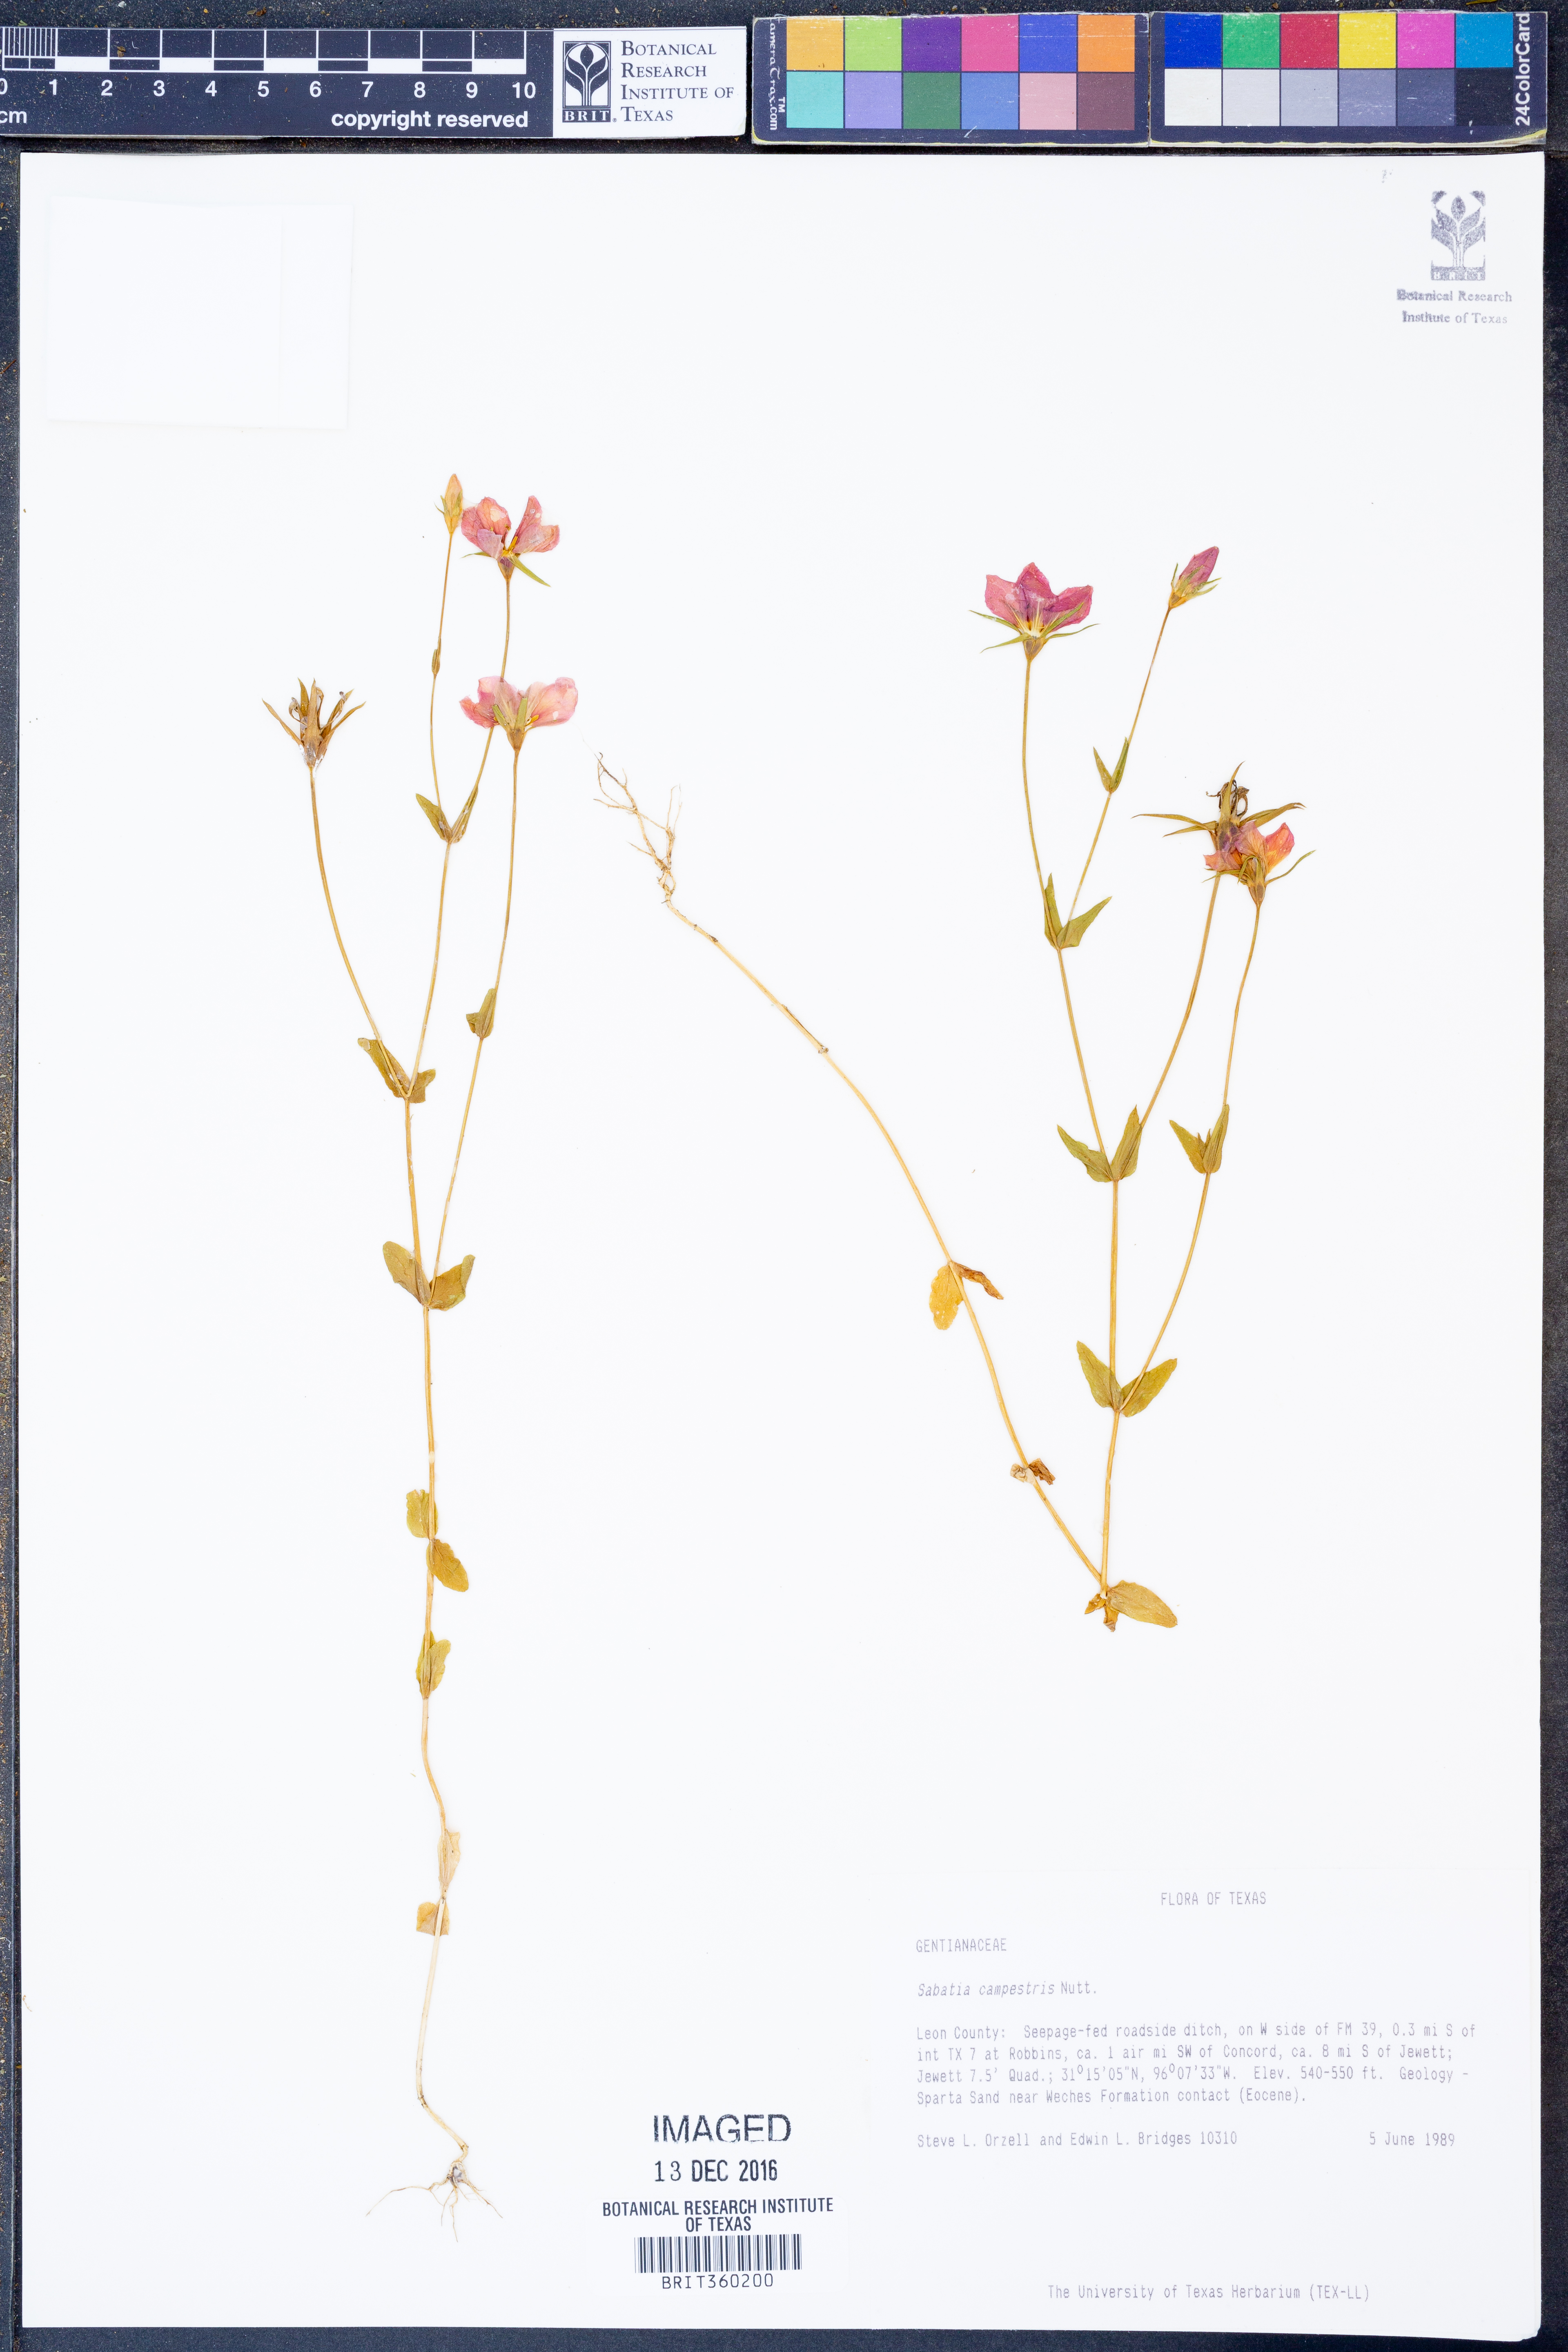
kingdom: Plantae
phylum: Tracheophyta
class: Magnoliopsida
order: Gentianales
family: Gentianaceae
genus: Sabatia
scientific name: Sabatia campestris
